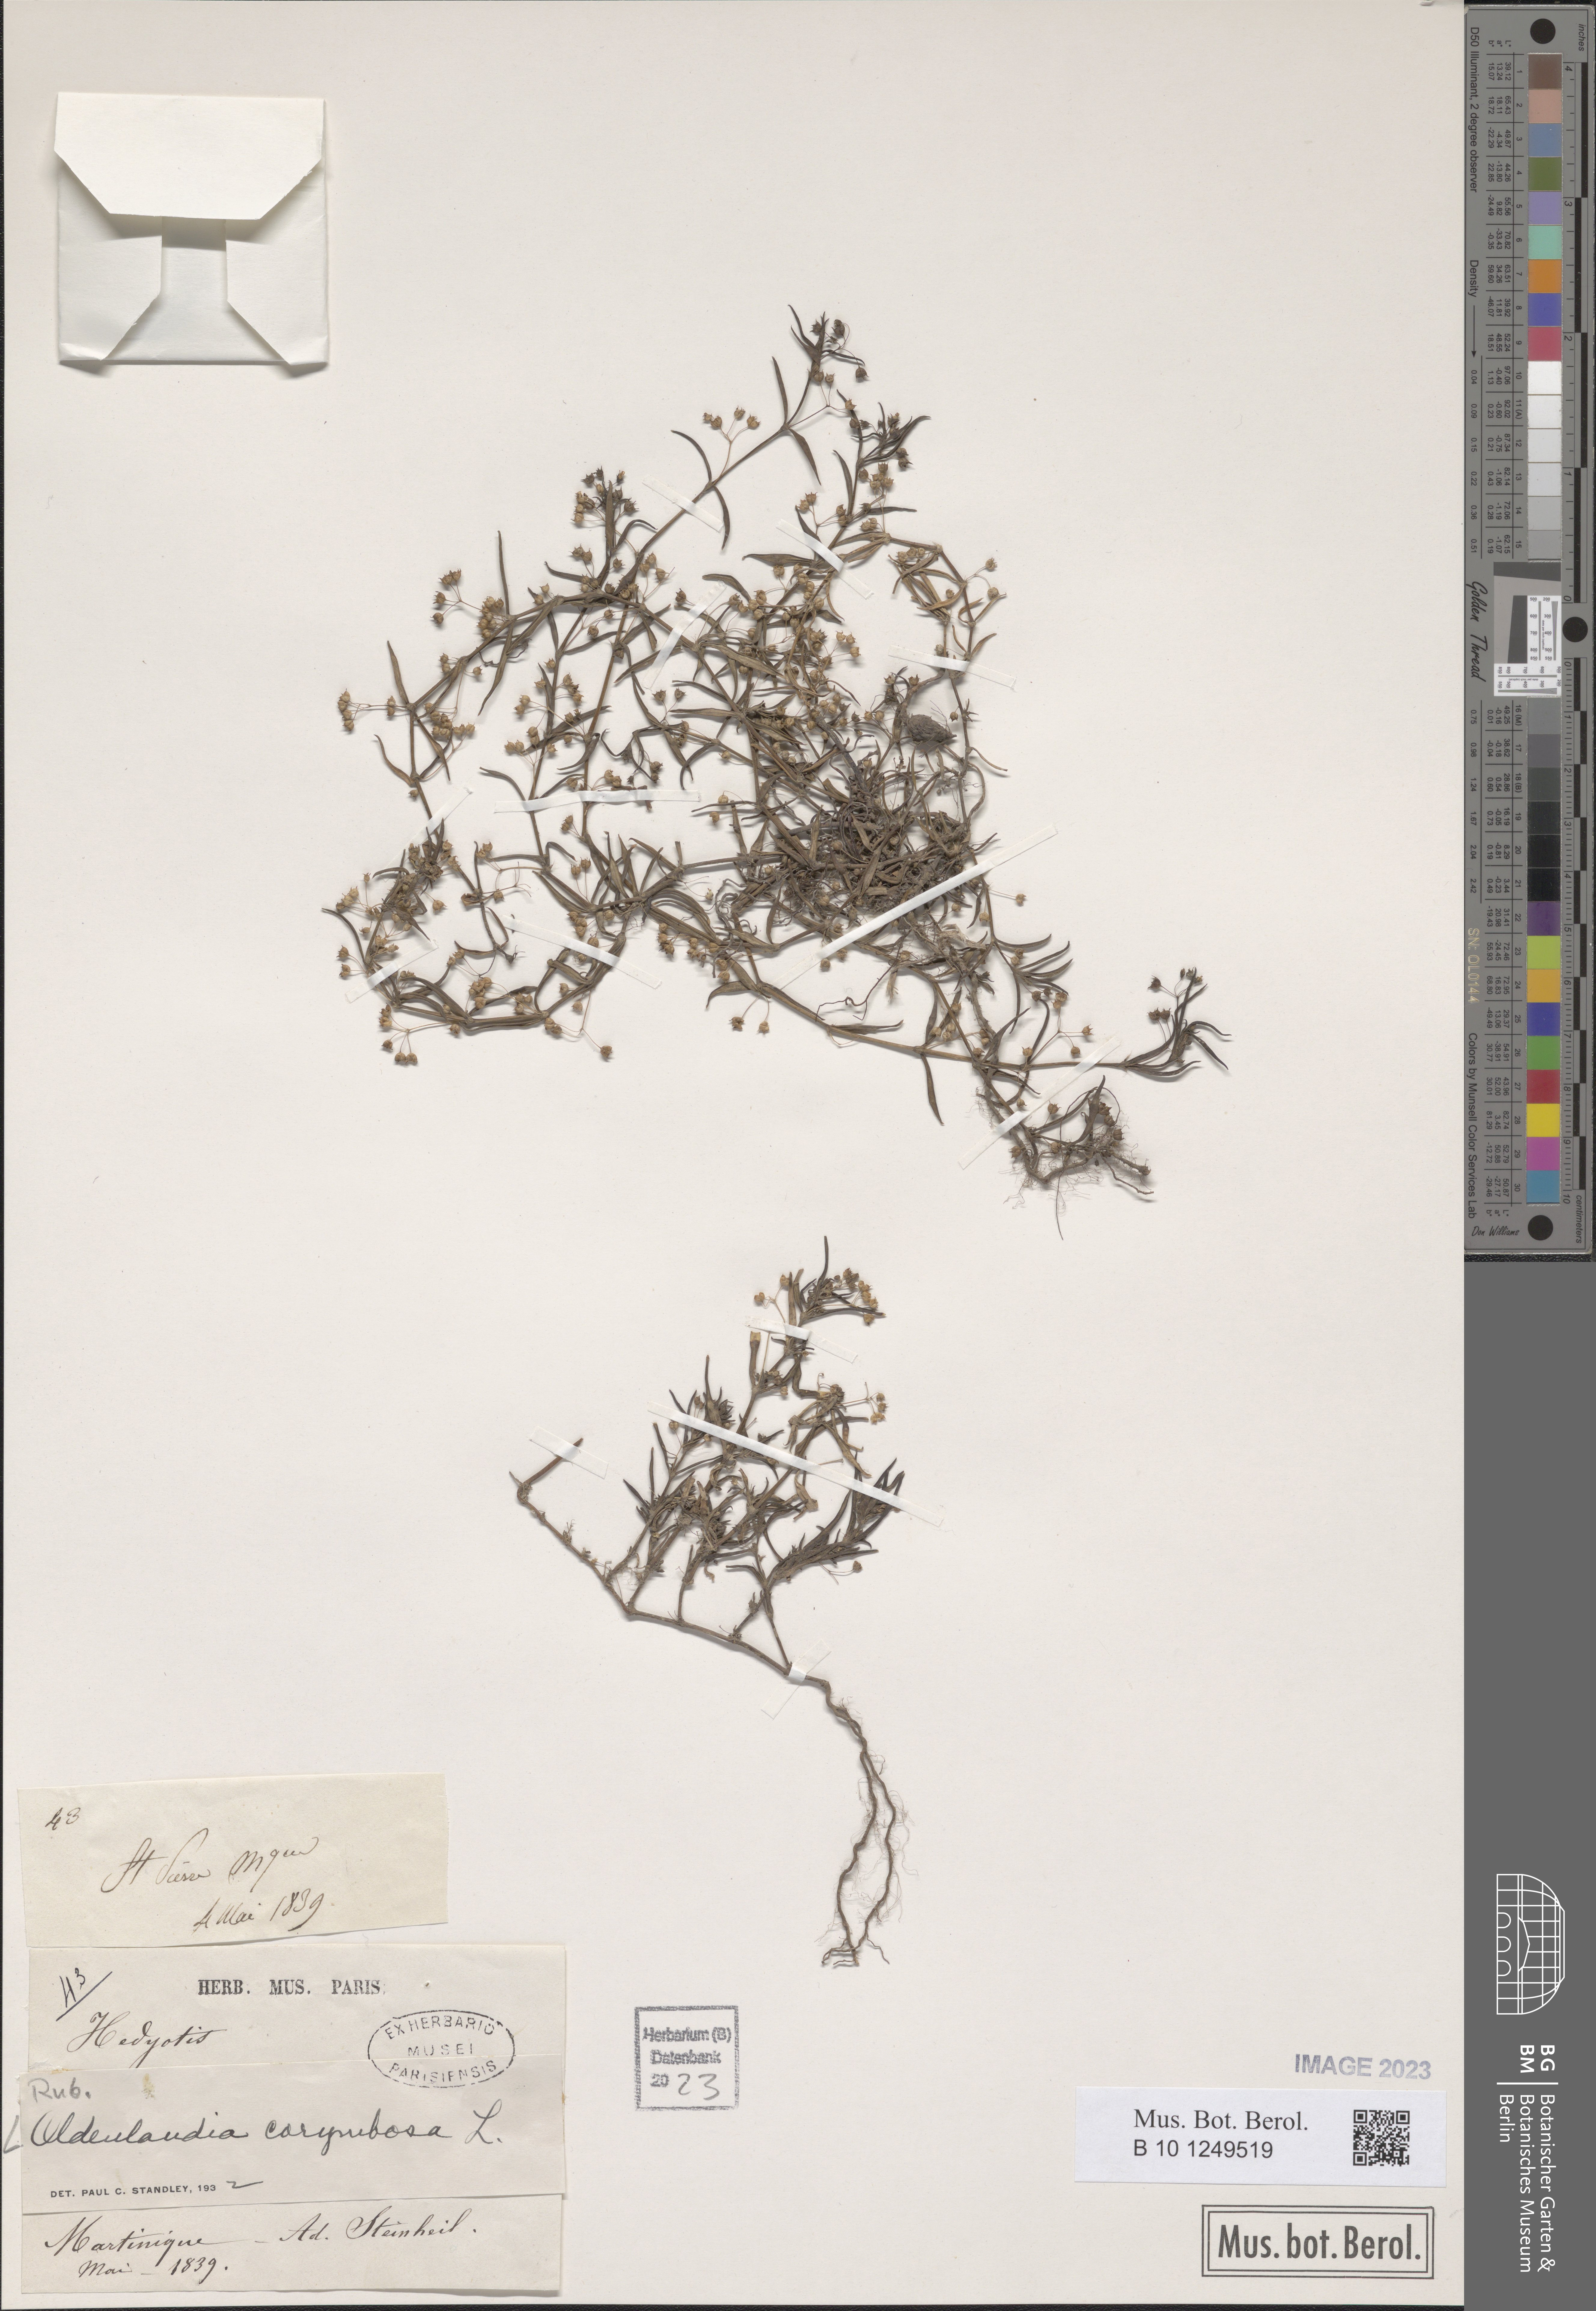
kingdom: Plantae
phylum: Tracheophyta
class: Magnoliopsida
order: Gentianales
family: Rubiaceae
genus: Oldenlandia
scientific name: Oldenlandia corymbosa
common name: Flat-top mille graines
